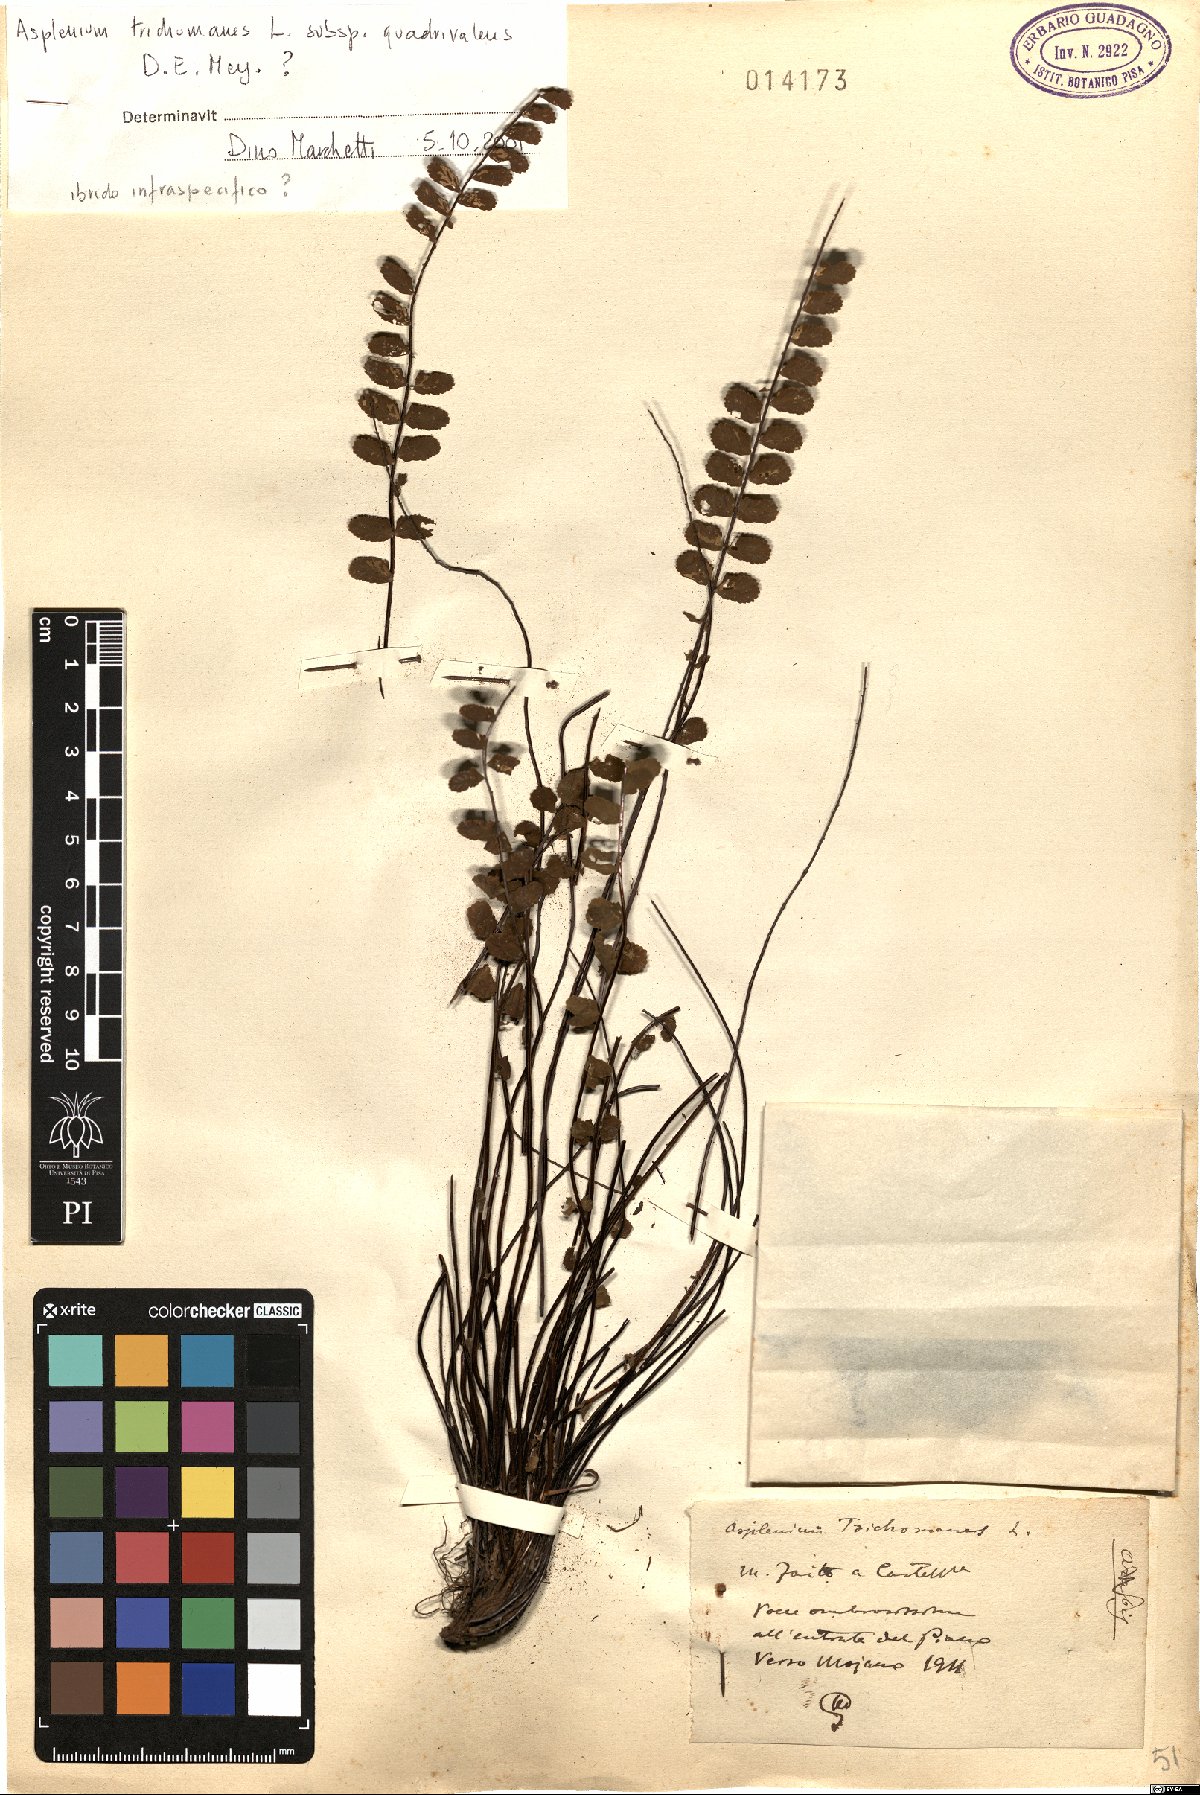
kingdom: Plantae
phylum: Tracheophyta
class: Polypodiopsida
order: Polypodiales
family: Aspleniaceae
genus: Asplenium
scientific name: Asplenium quadrivalens
